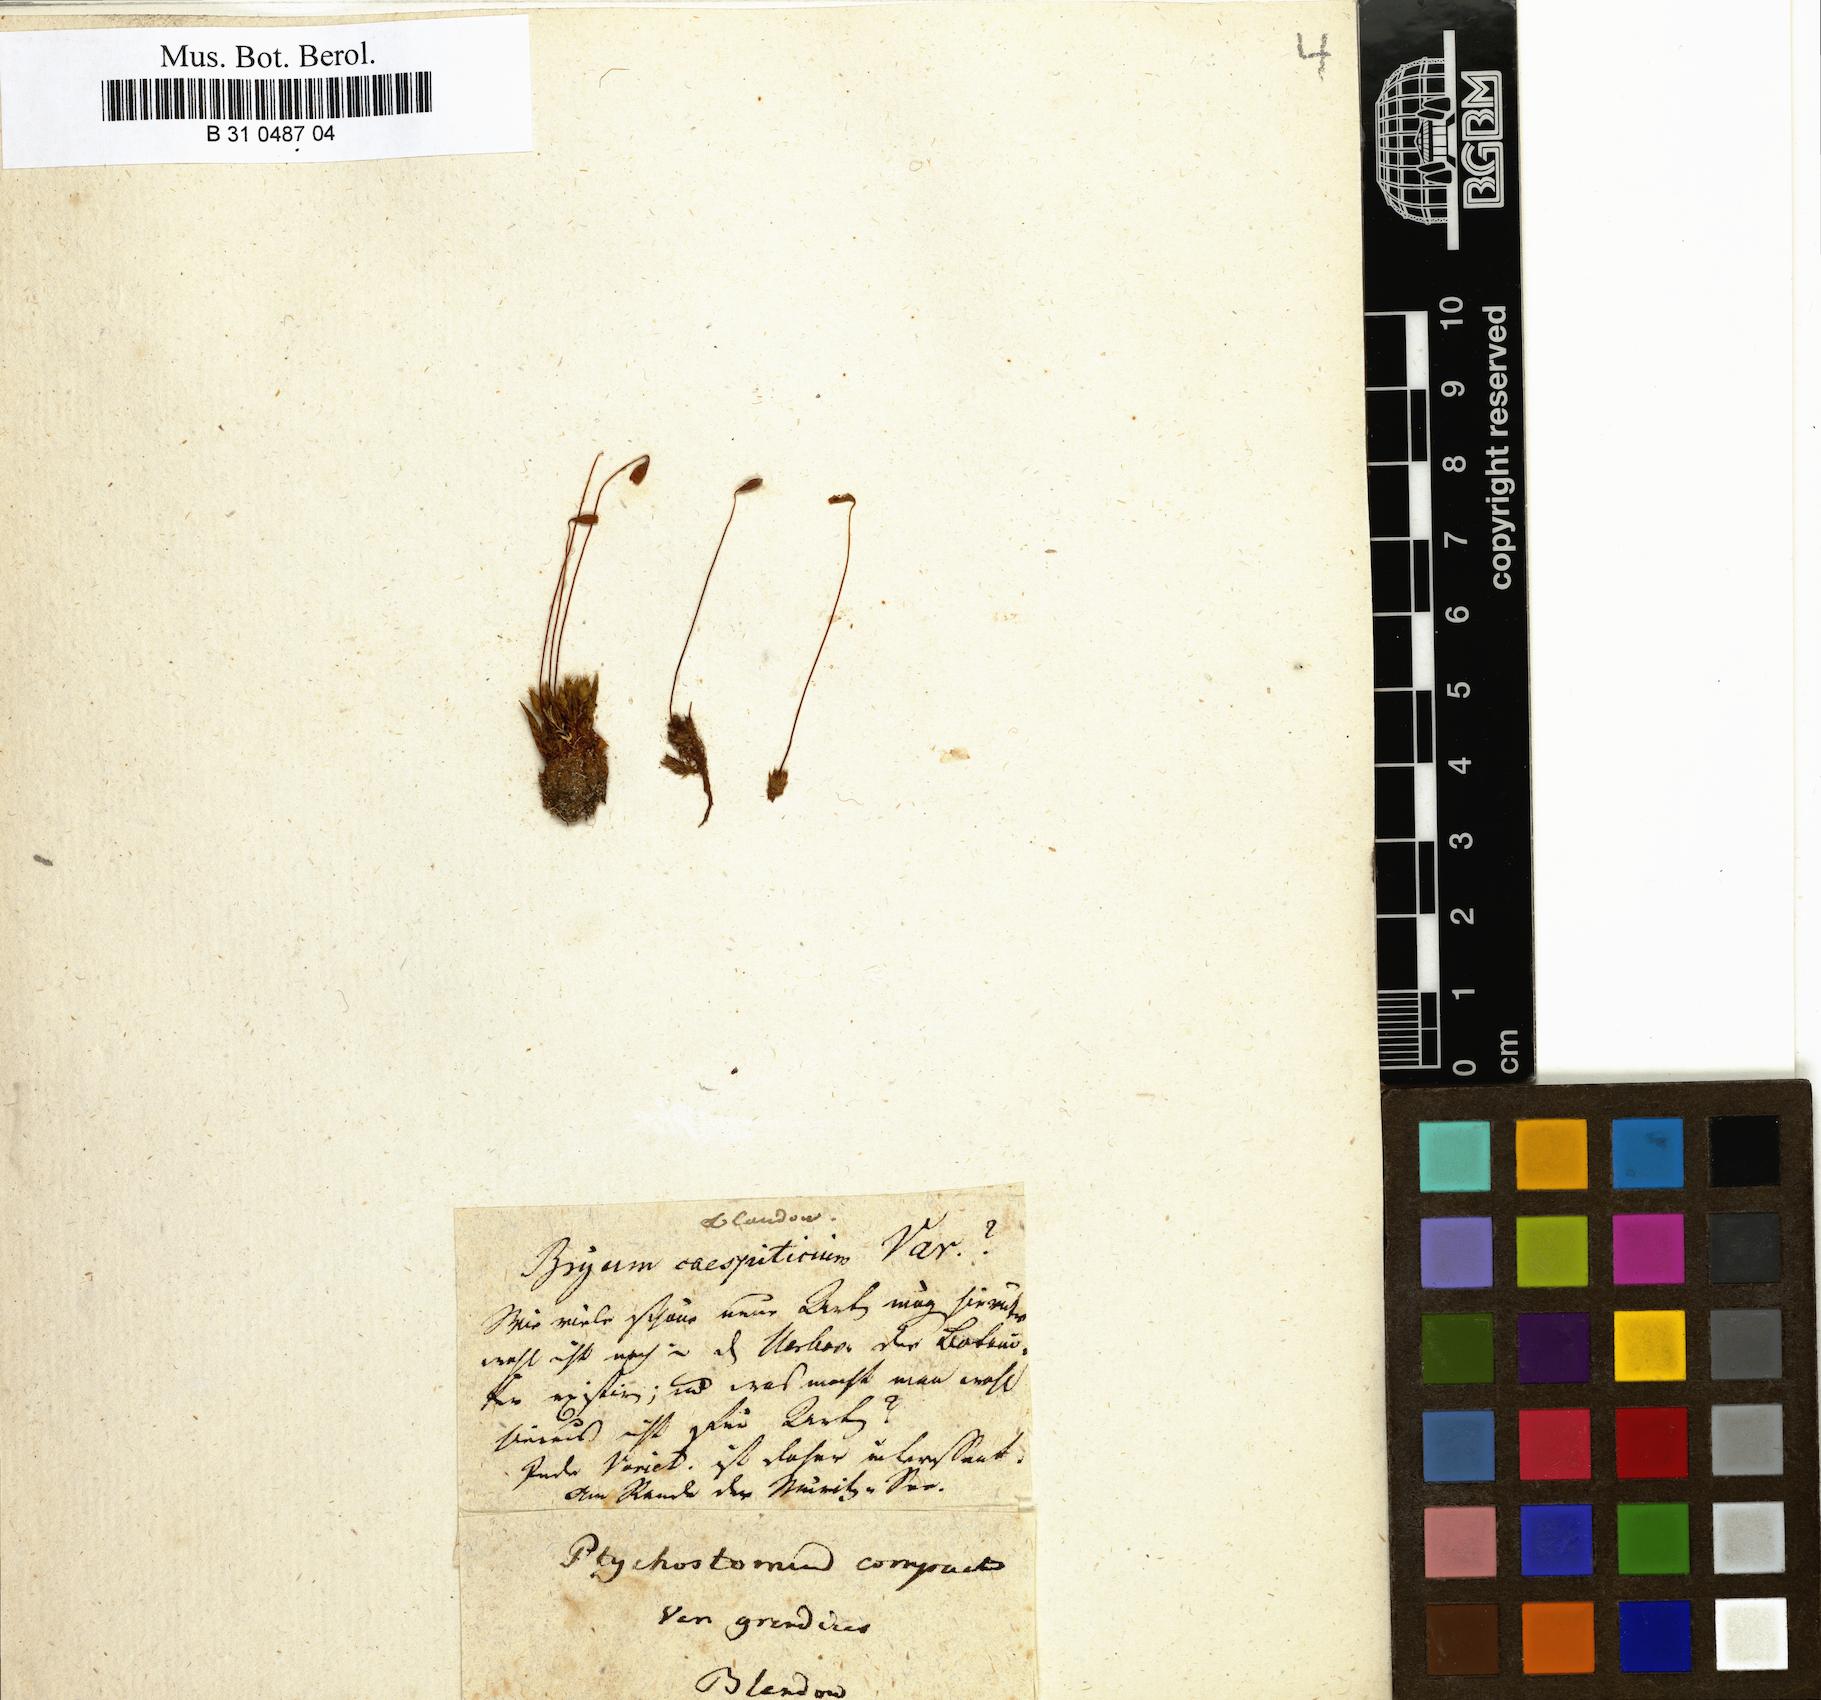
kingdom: Plantae
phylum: Bryophyta
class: Bryopsida
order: Bryales
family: Bryaceae
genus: Ptychostomum
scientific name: Ptychostomum compactum
